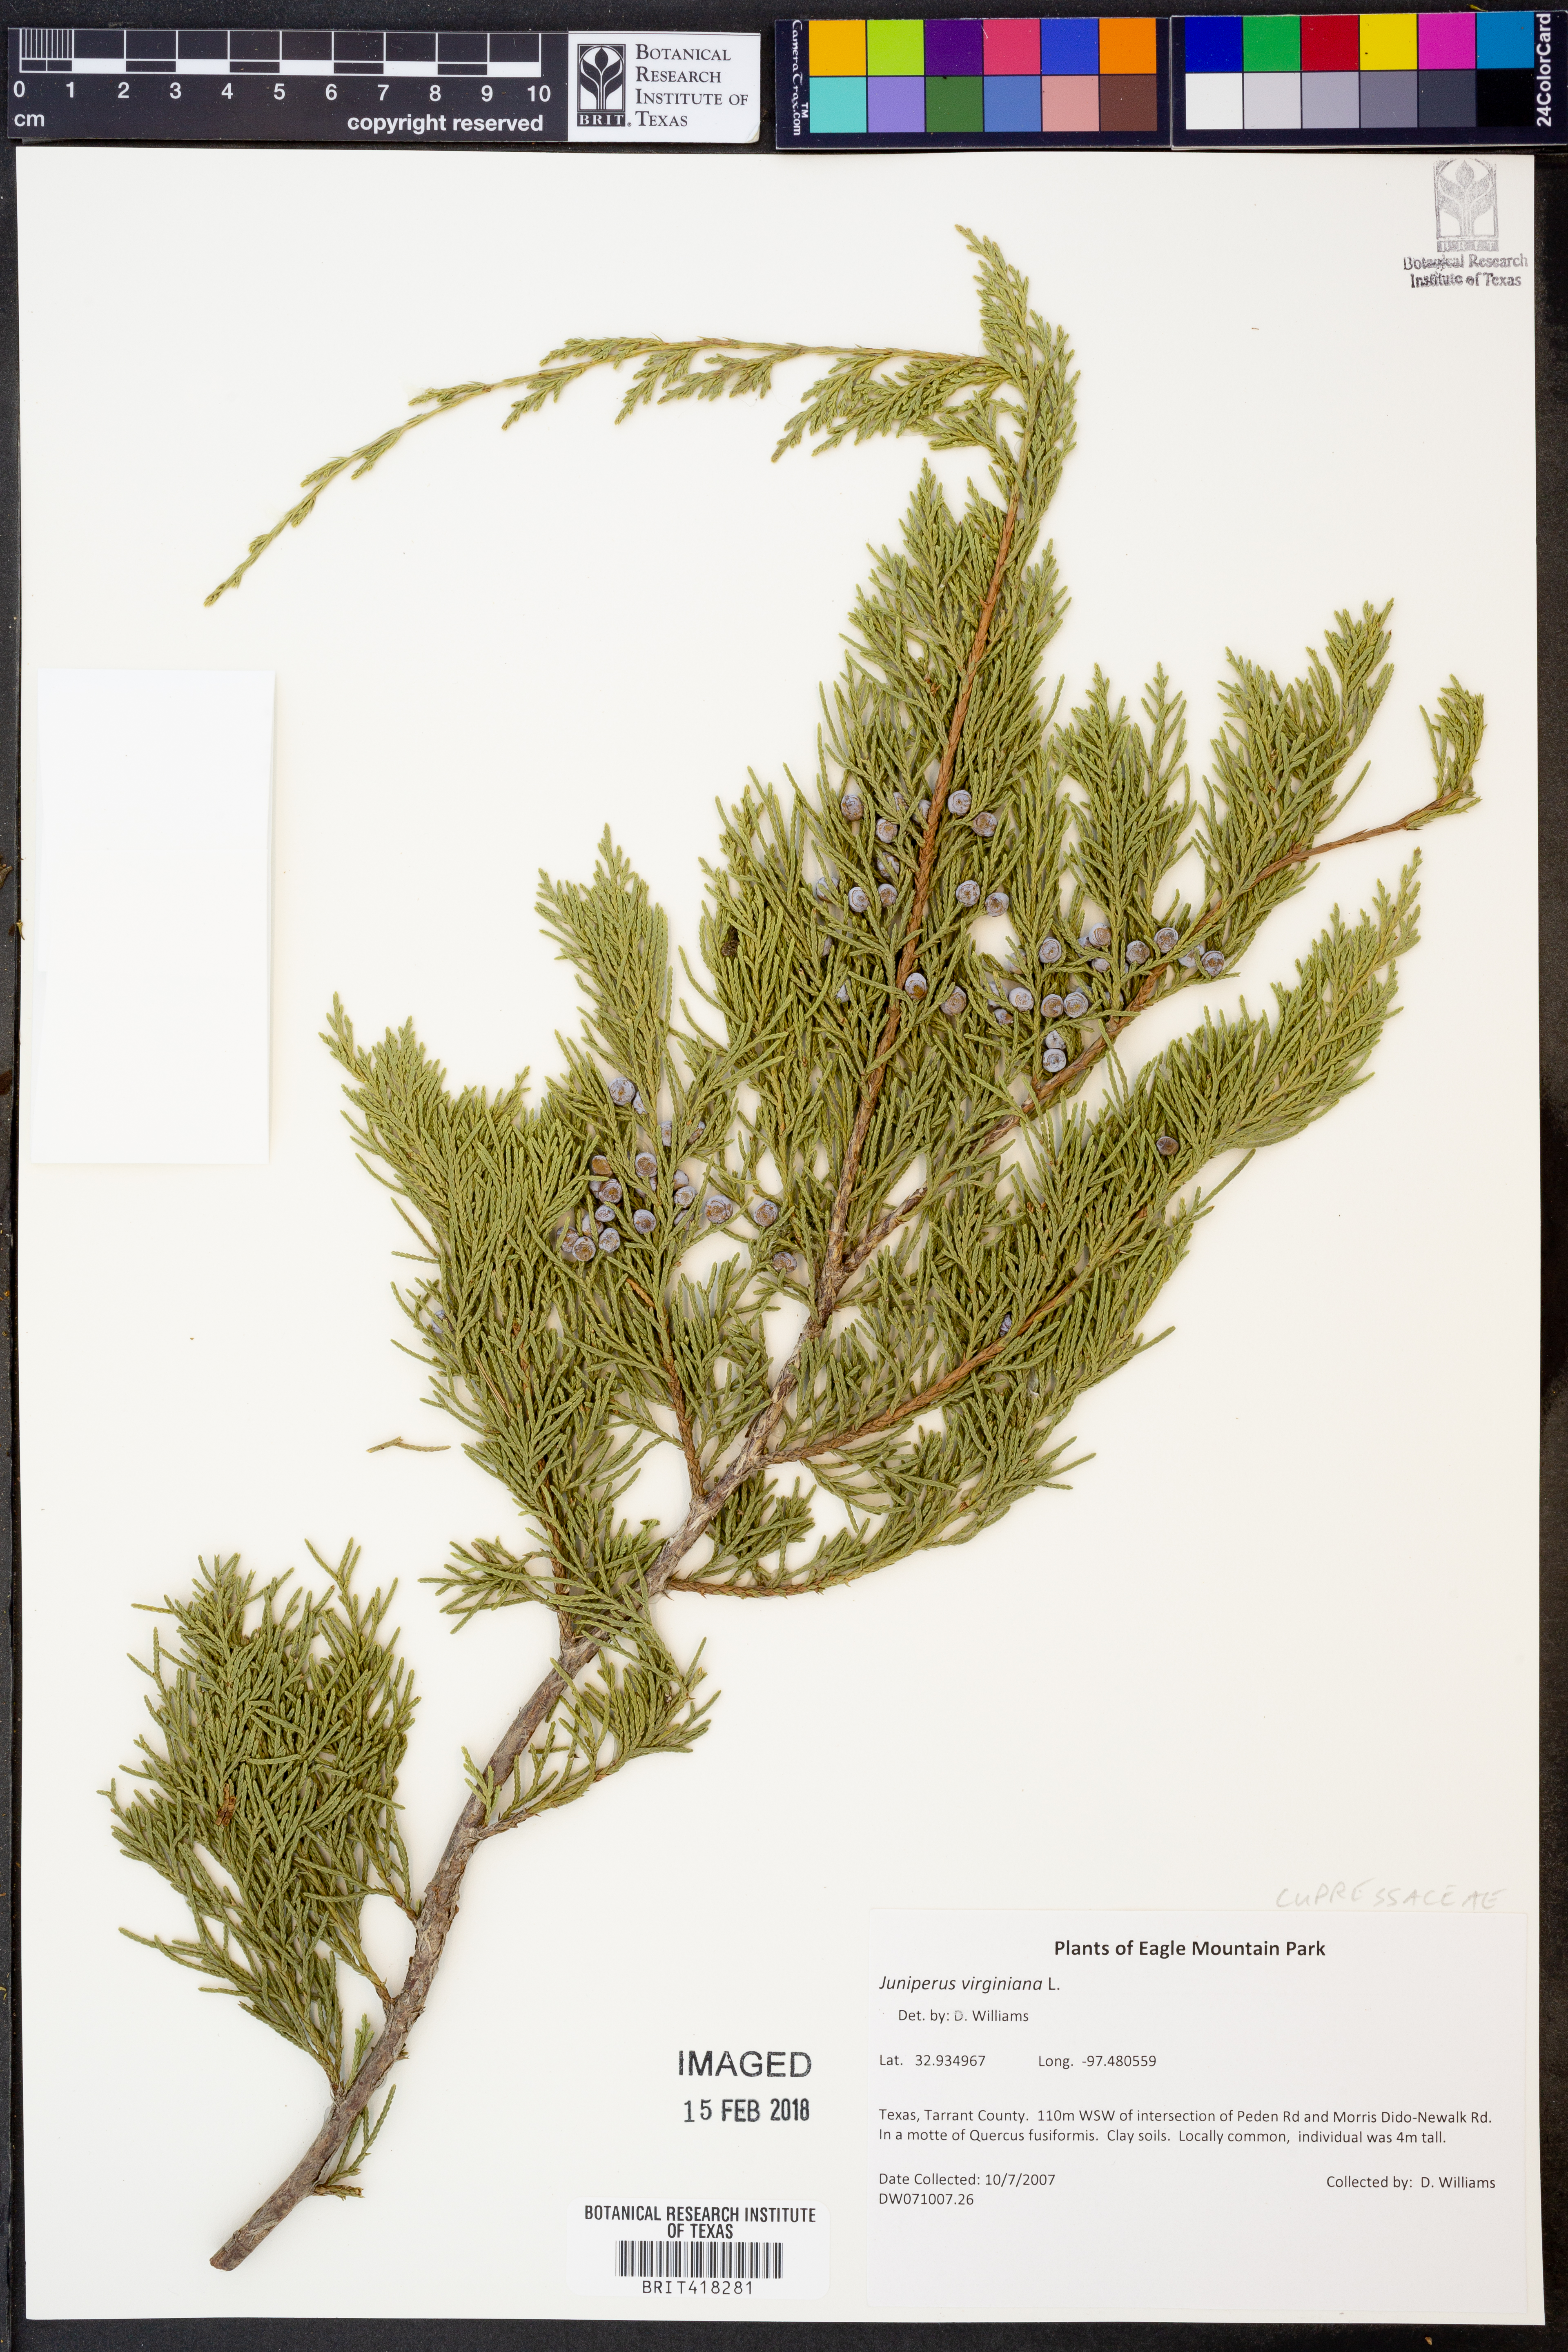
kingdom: Plantae
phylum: Tracheophyta
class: Pinopsida
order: Pinales
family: Cupressaceae
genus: Juniperus
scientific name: Juniperus virginiana
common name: Red juniper
